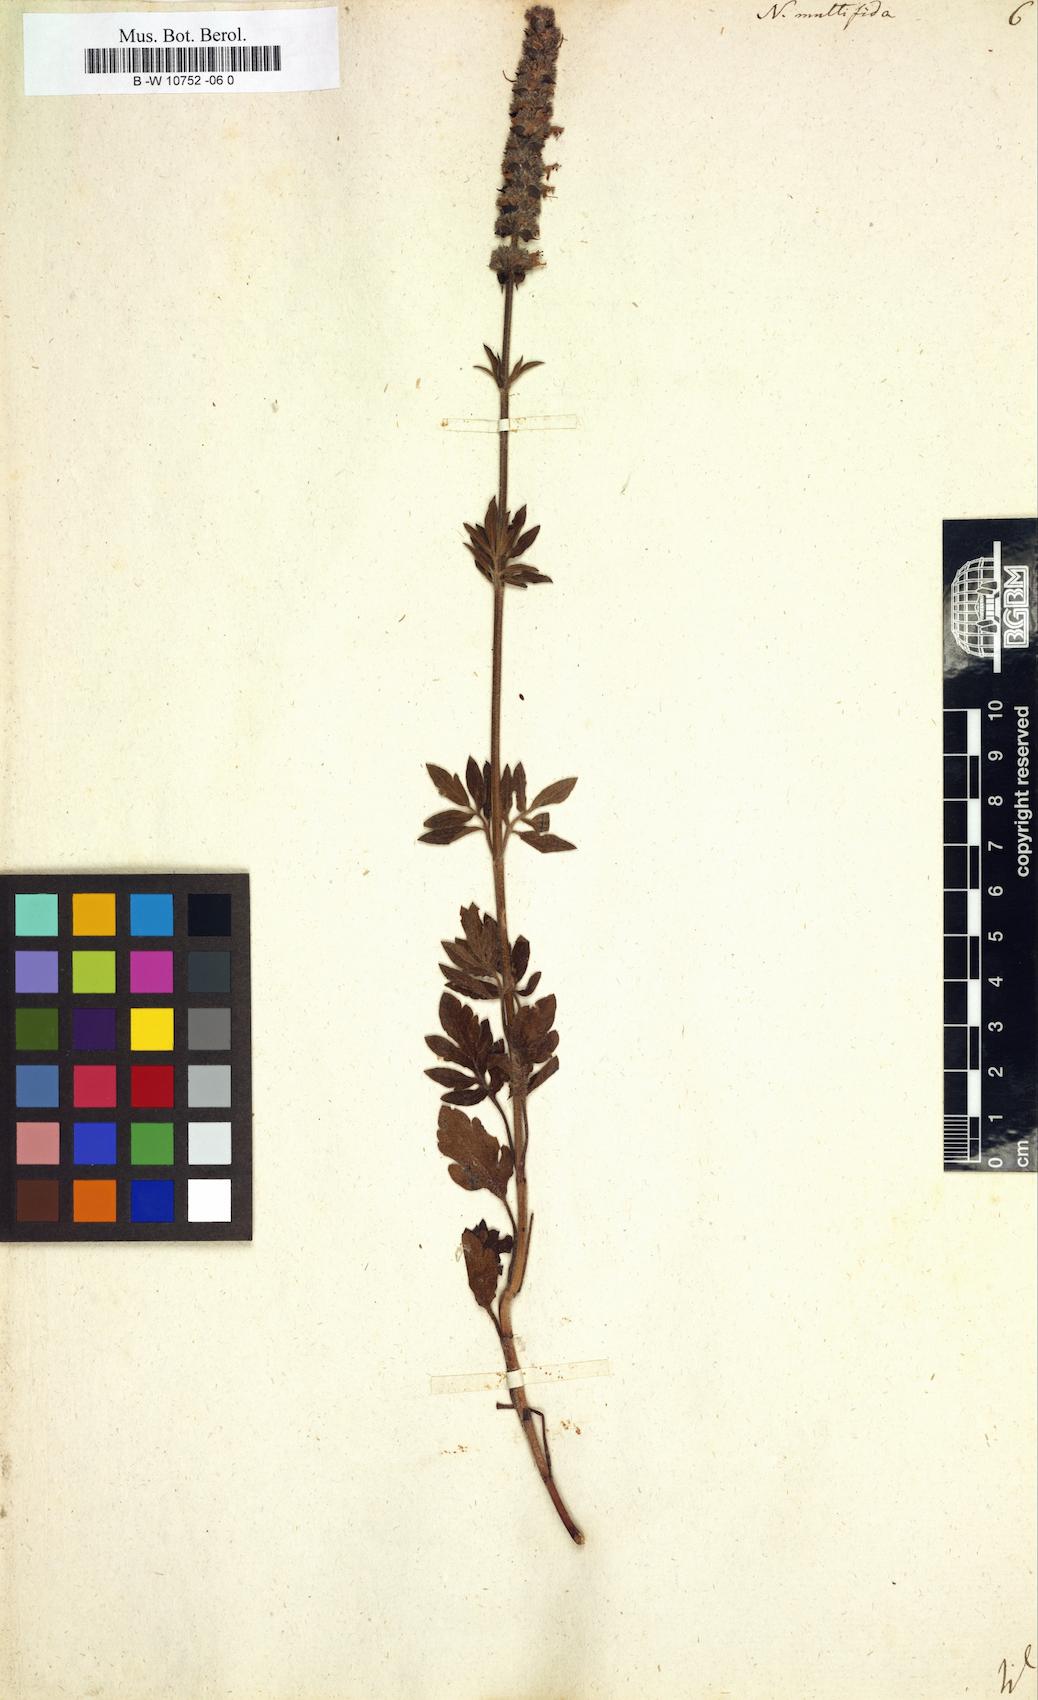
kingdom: Plantae
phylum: Tracheophyta
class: Magnoliopsida
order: Lamiales
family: Lamiaceae
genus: Nepeta
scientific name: Nepeta multifida
